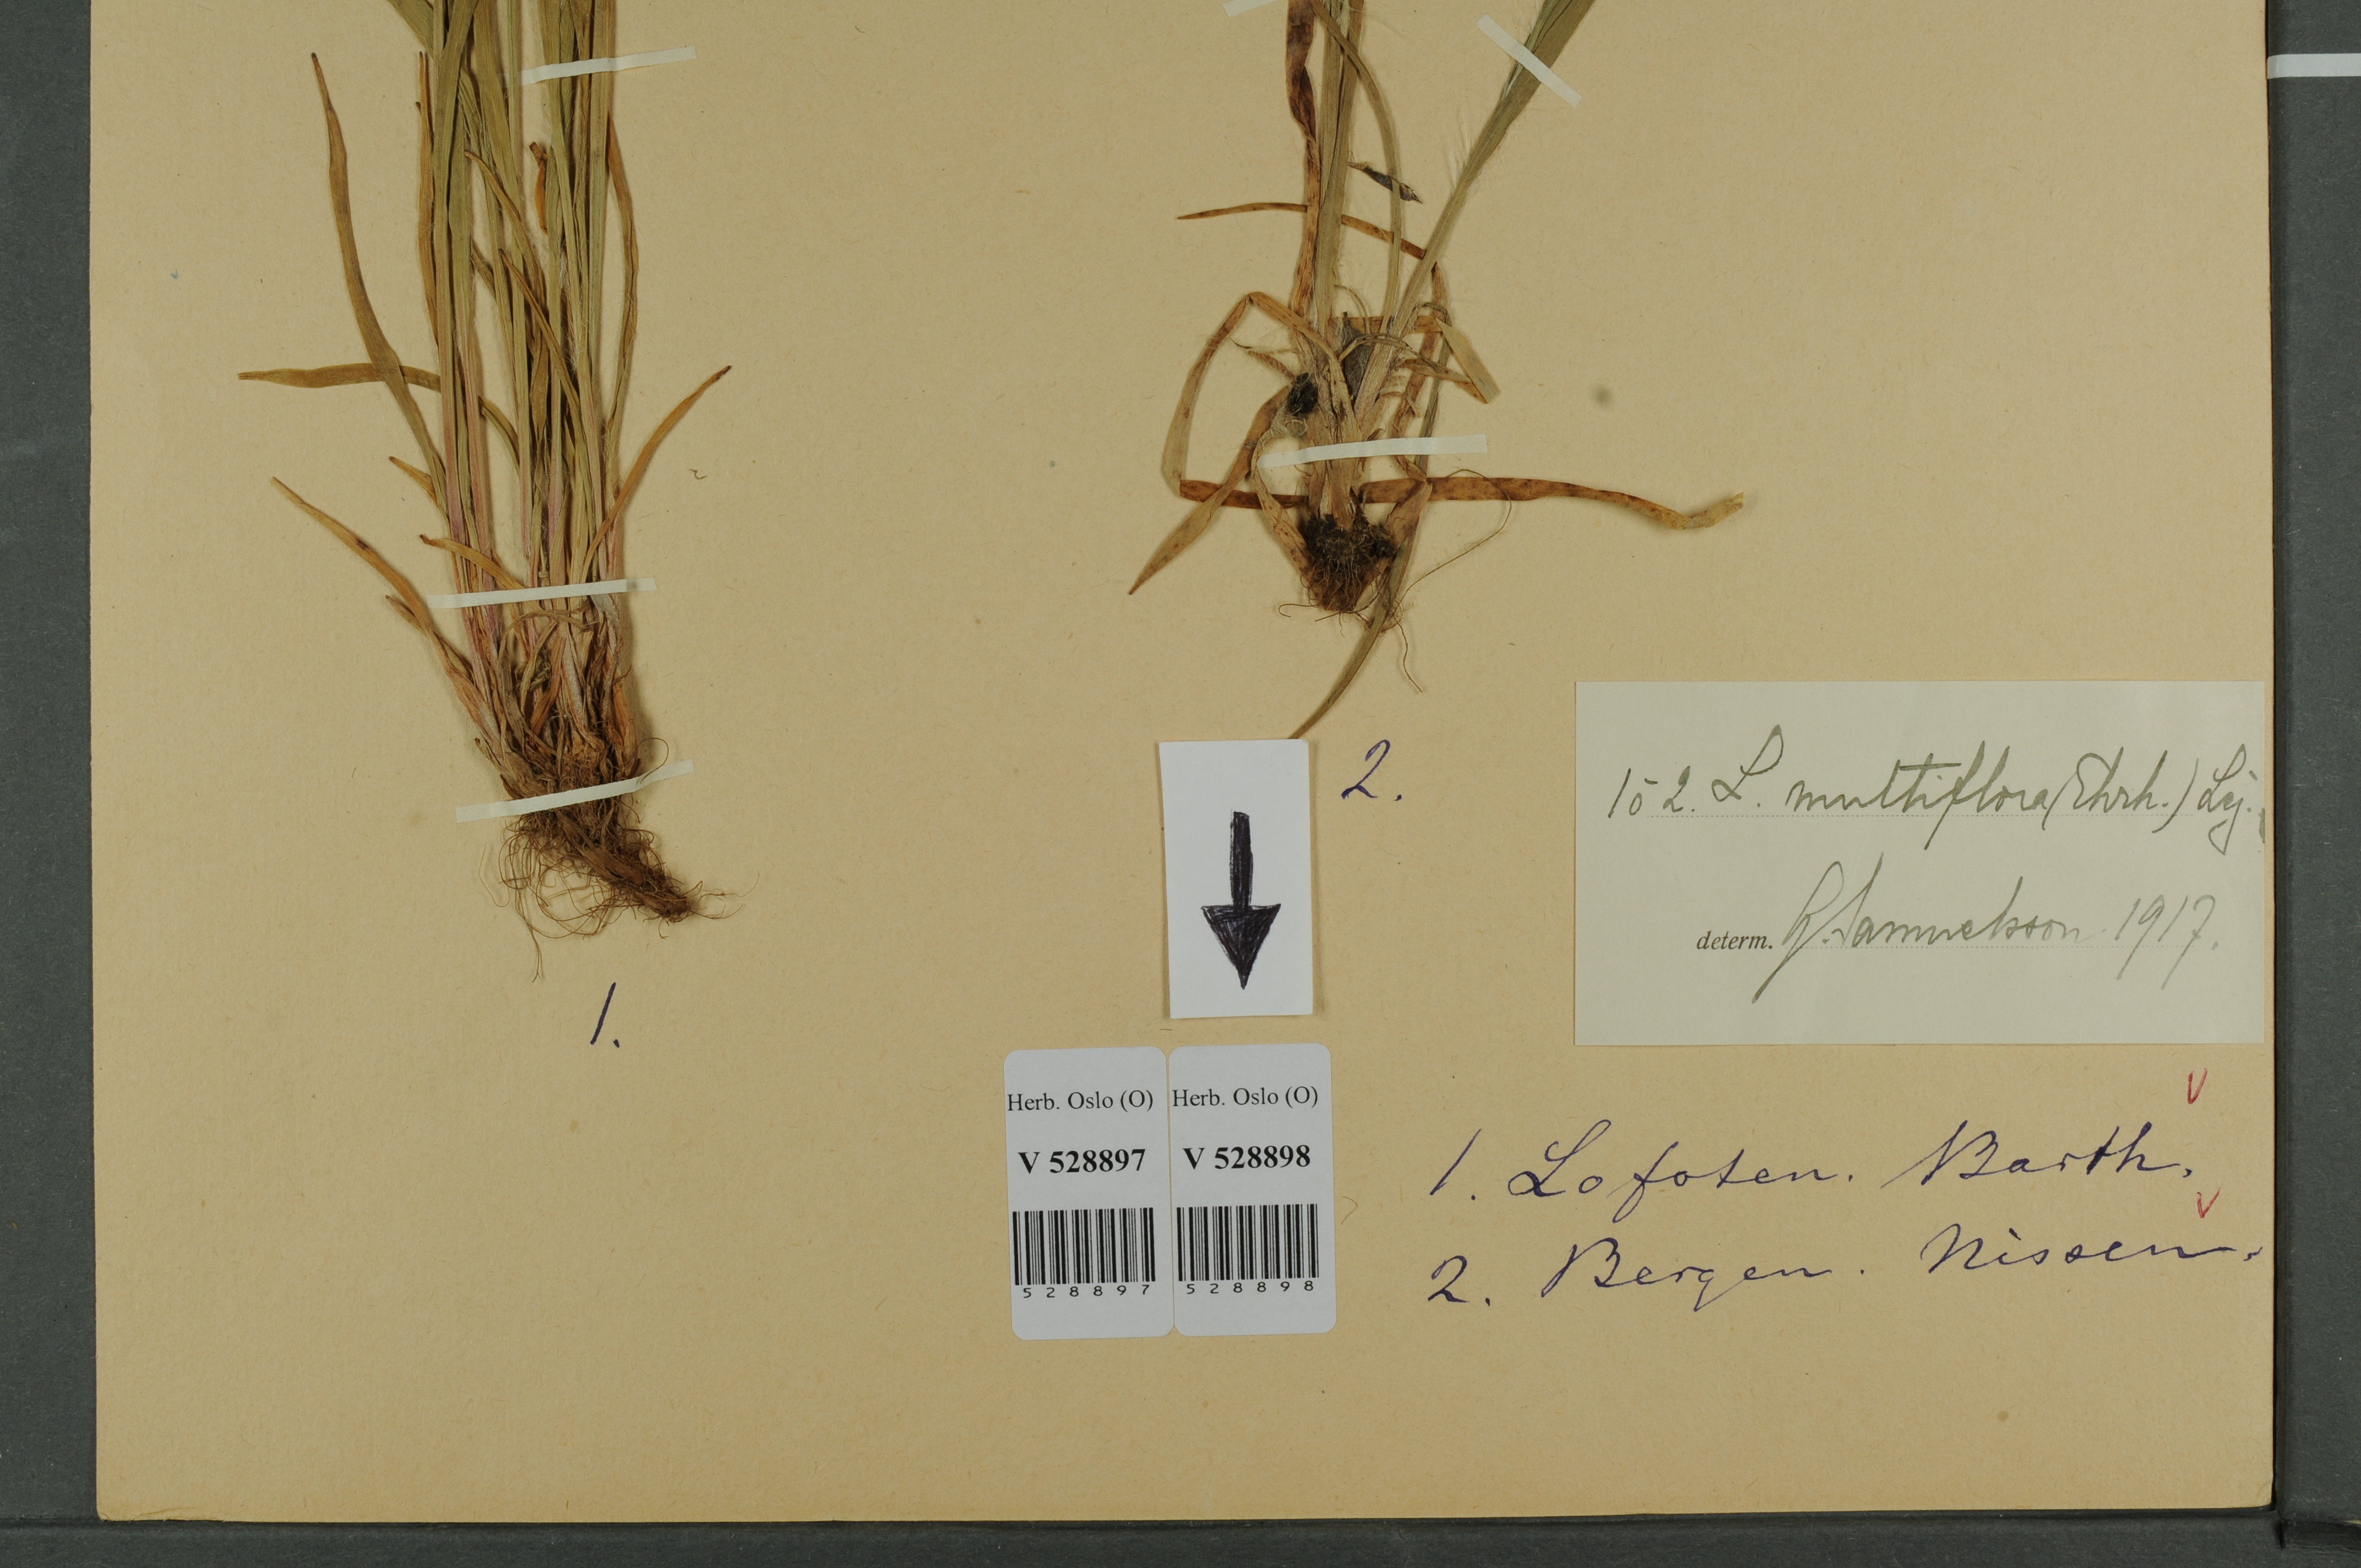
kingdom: Plantae
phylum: Tracheophyta
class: Liliopsida
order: Poales
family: Juncaceae
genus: Luzula
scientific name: Luzula multiflora
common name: Heath wood-rush
